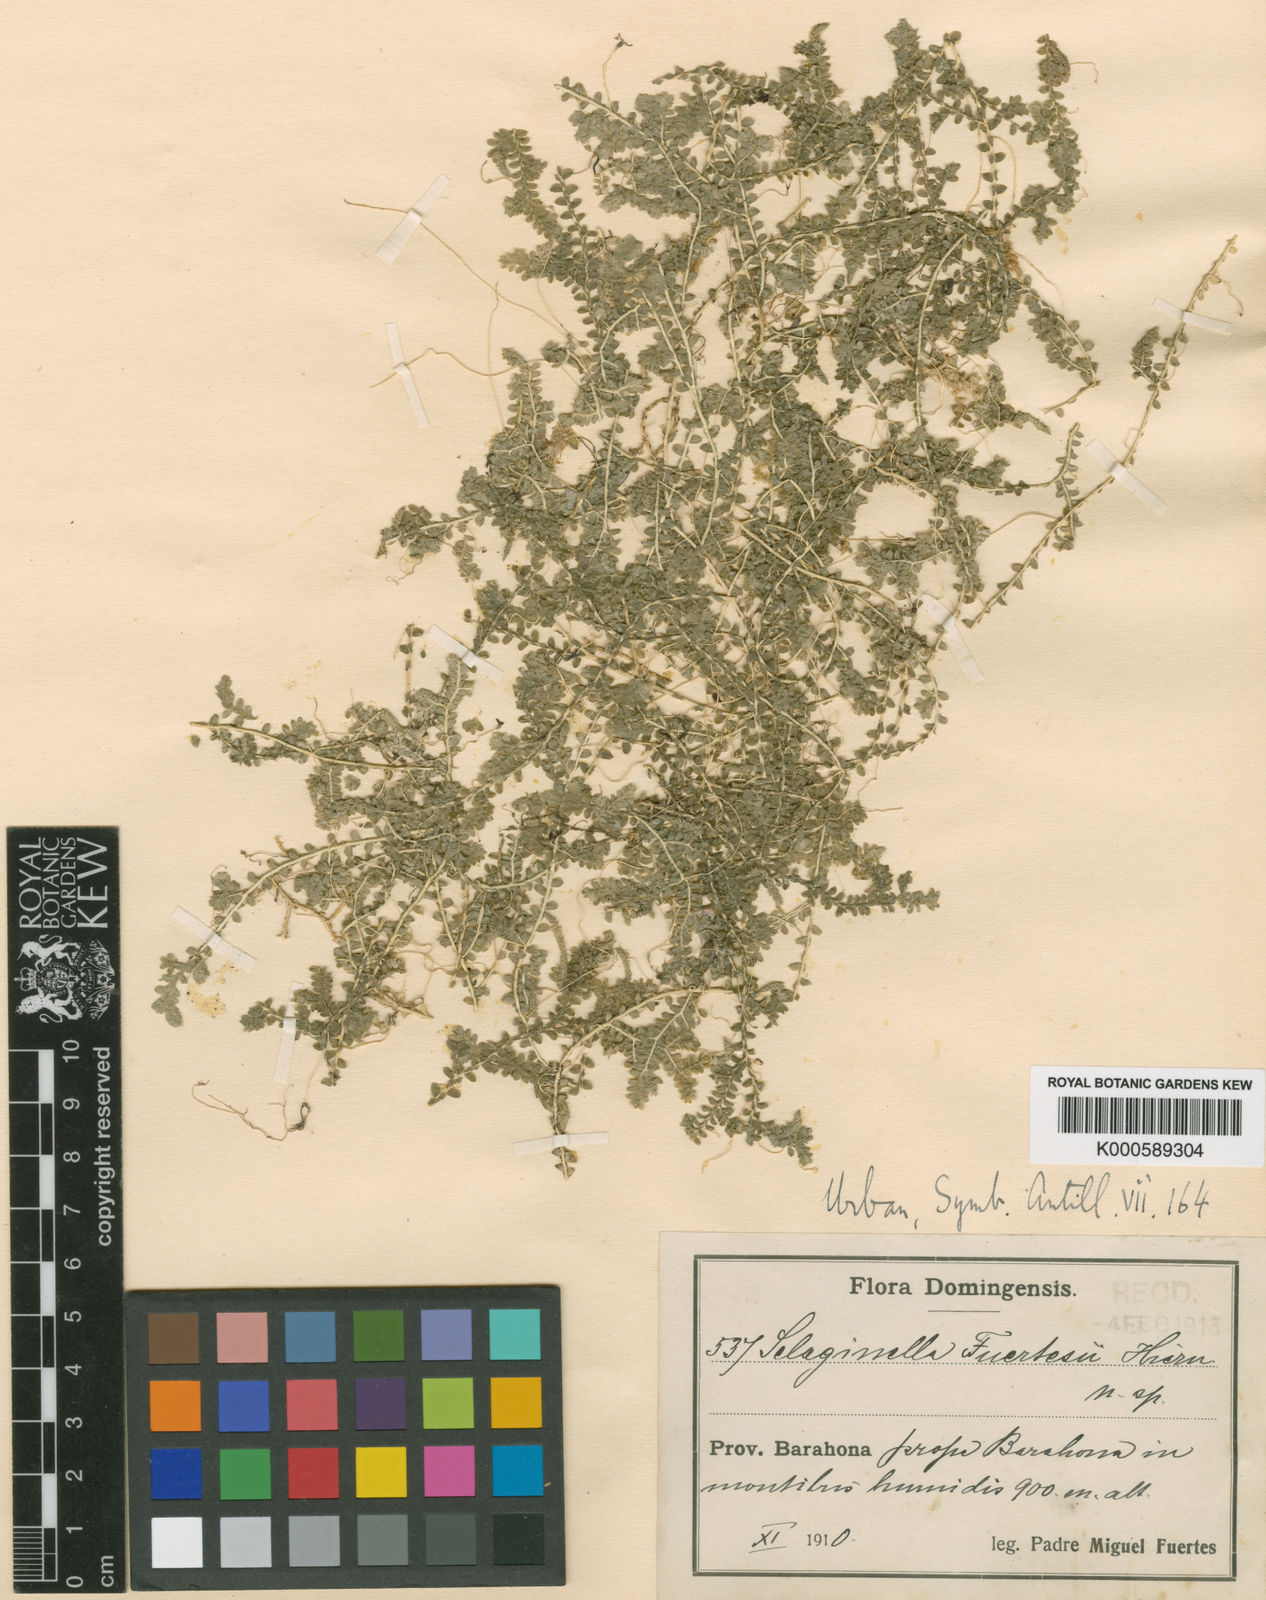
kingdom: Plantae
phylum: Tracheophyta
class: Lycopodiopsida
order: Selaginellales
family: Selaginellaceae
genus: Selaginella
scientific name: Selaginella fuertesii
